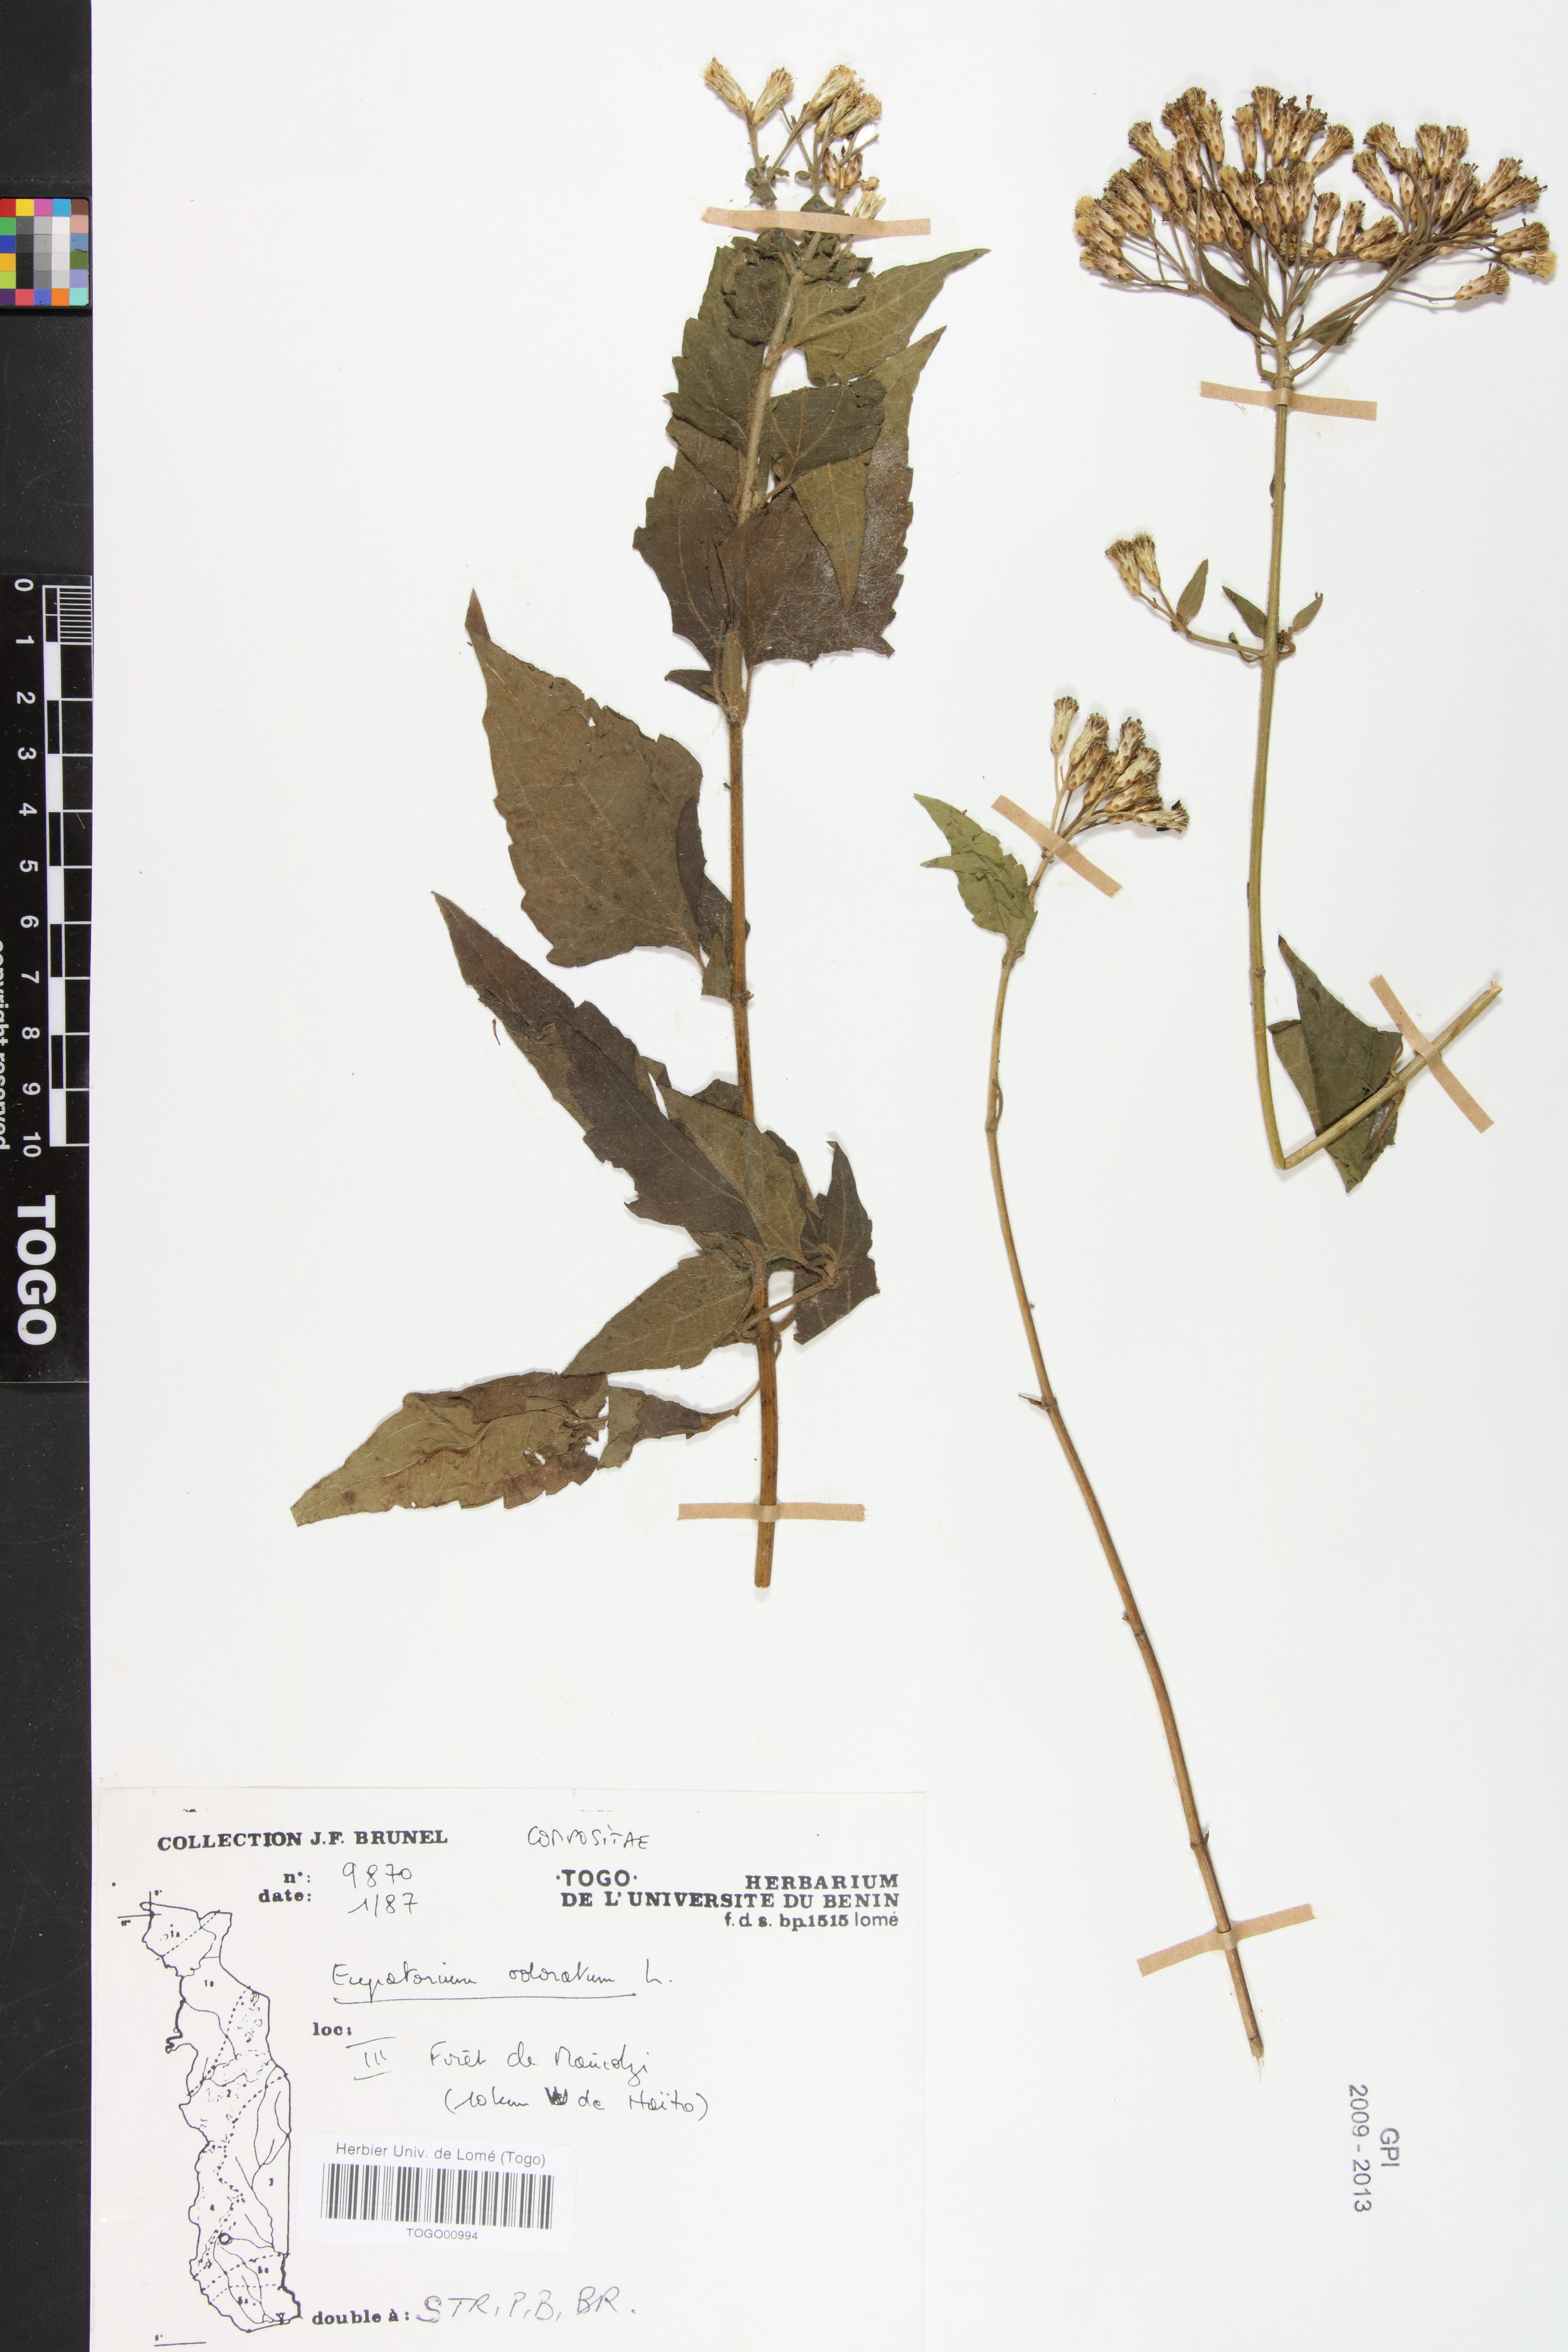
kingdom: Plantae
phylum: Tracheophyta
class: Magnoliopsida
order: Asterales
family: Asteraceae
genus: Chromolaena
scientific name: Chromolaena odorata
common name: Siamweed
